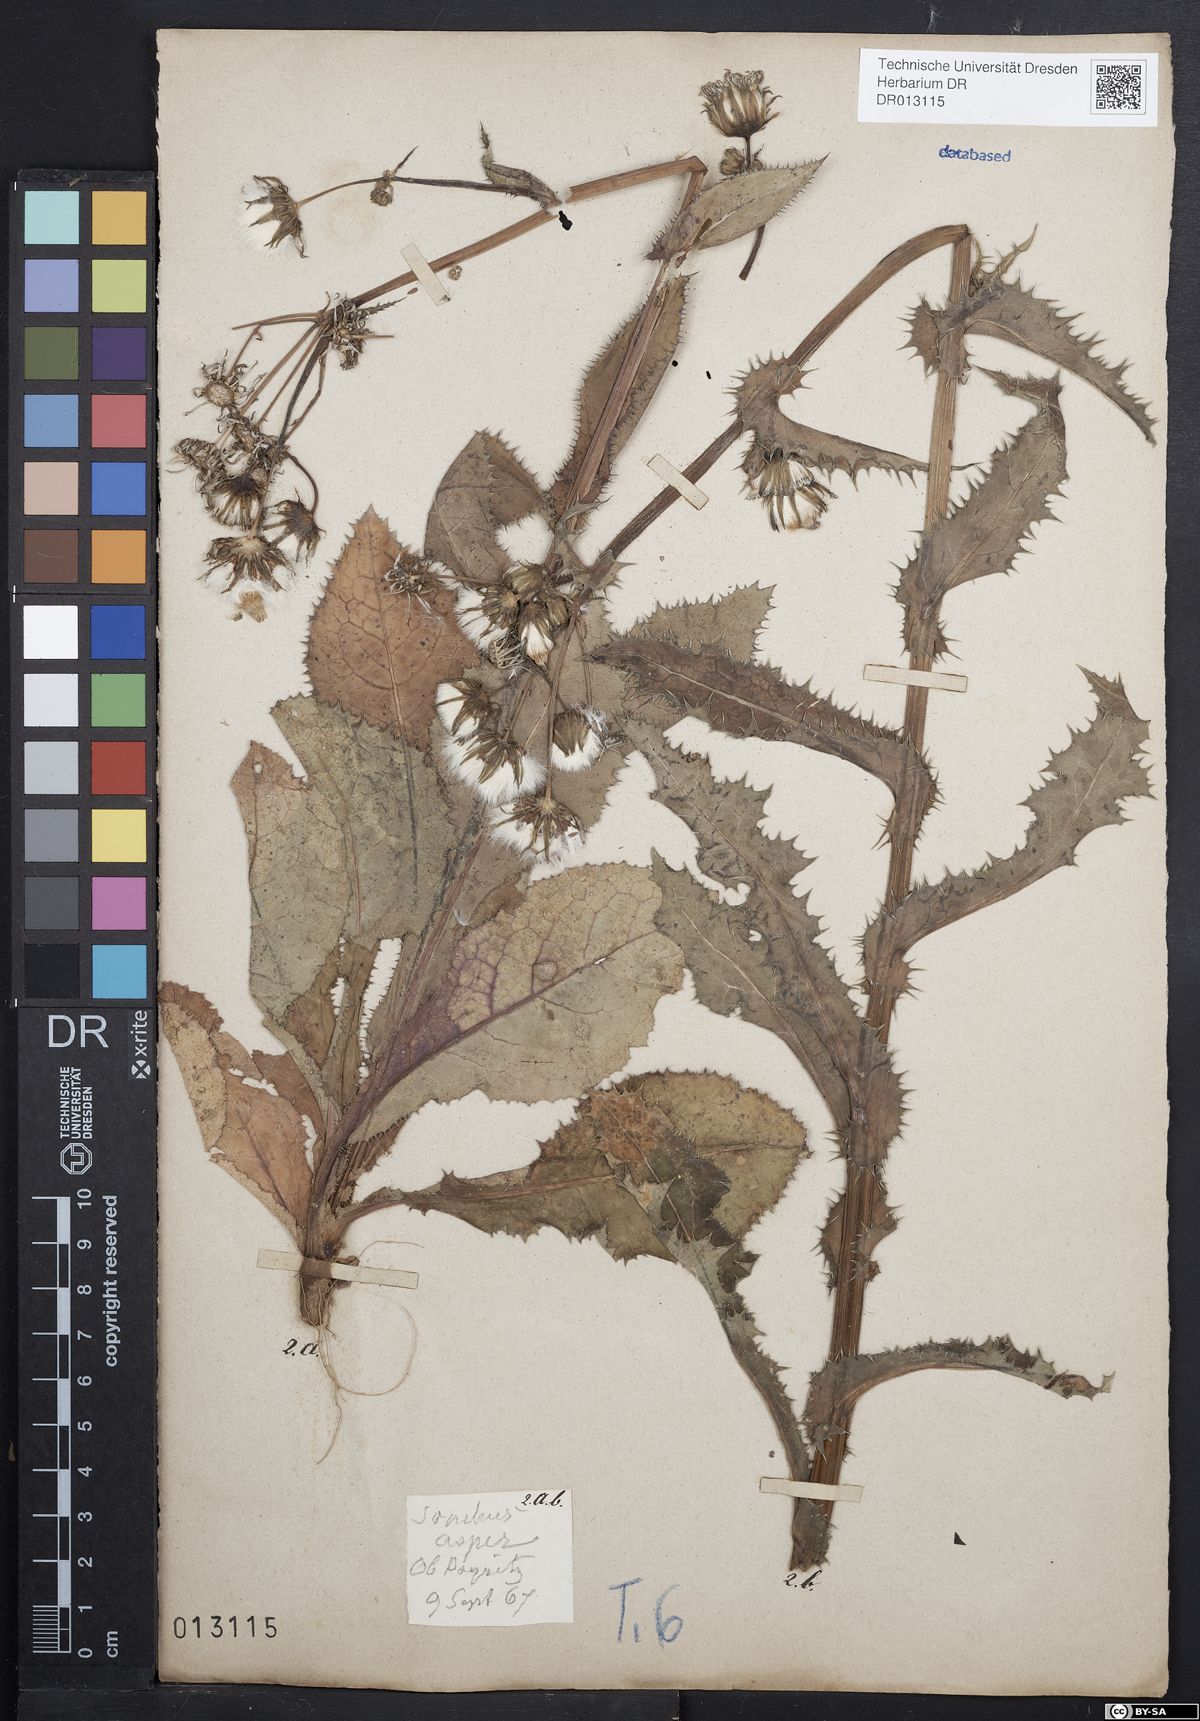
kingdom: Plantae
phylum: Tracheophyta
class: Magnoliopsida
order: Asterales
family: Asteraceae
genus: Sonchus
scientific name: Sonchus asper
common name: Prickly sow-thistle
